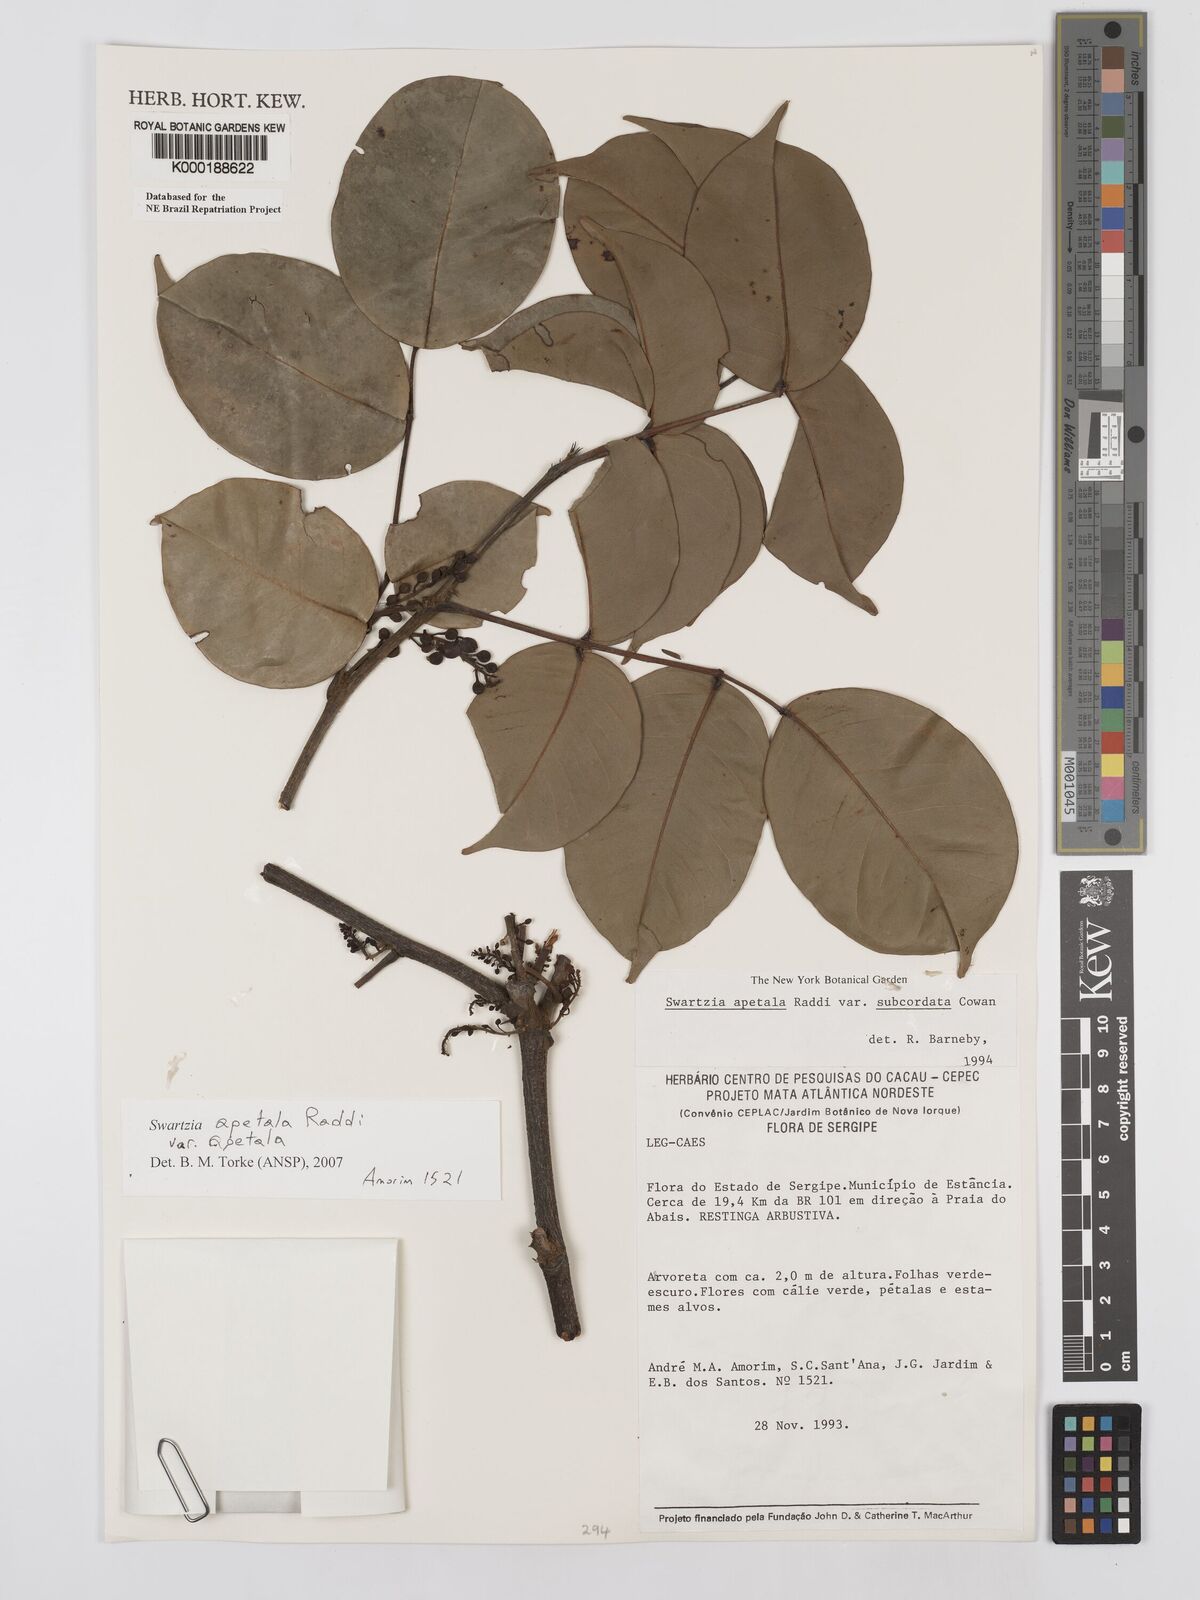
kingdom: Plantae
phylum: Tracheophyta
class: Magnoliopsida
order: Fabales
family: Fabaceae
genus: Swartzia
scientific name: Swartzia apetala
